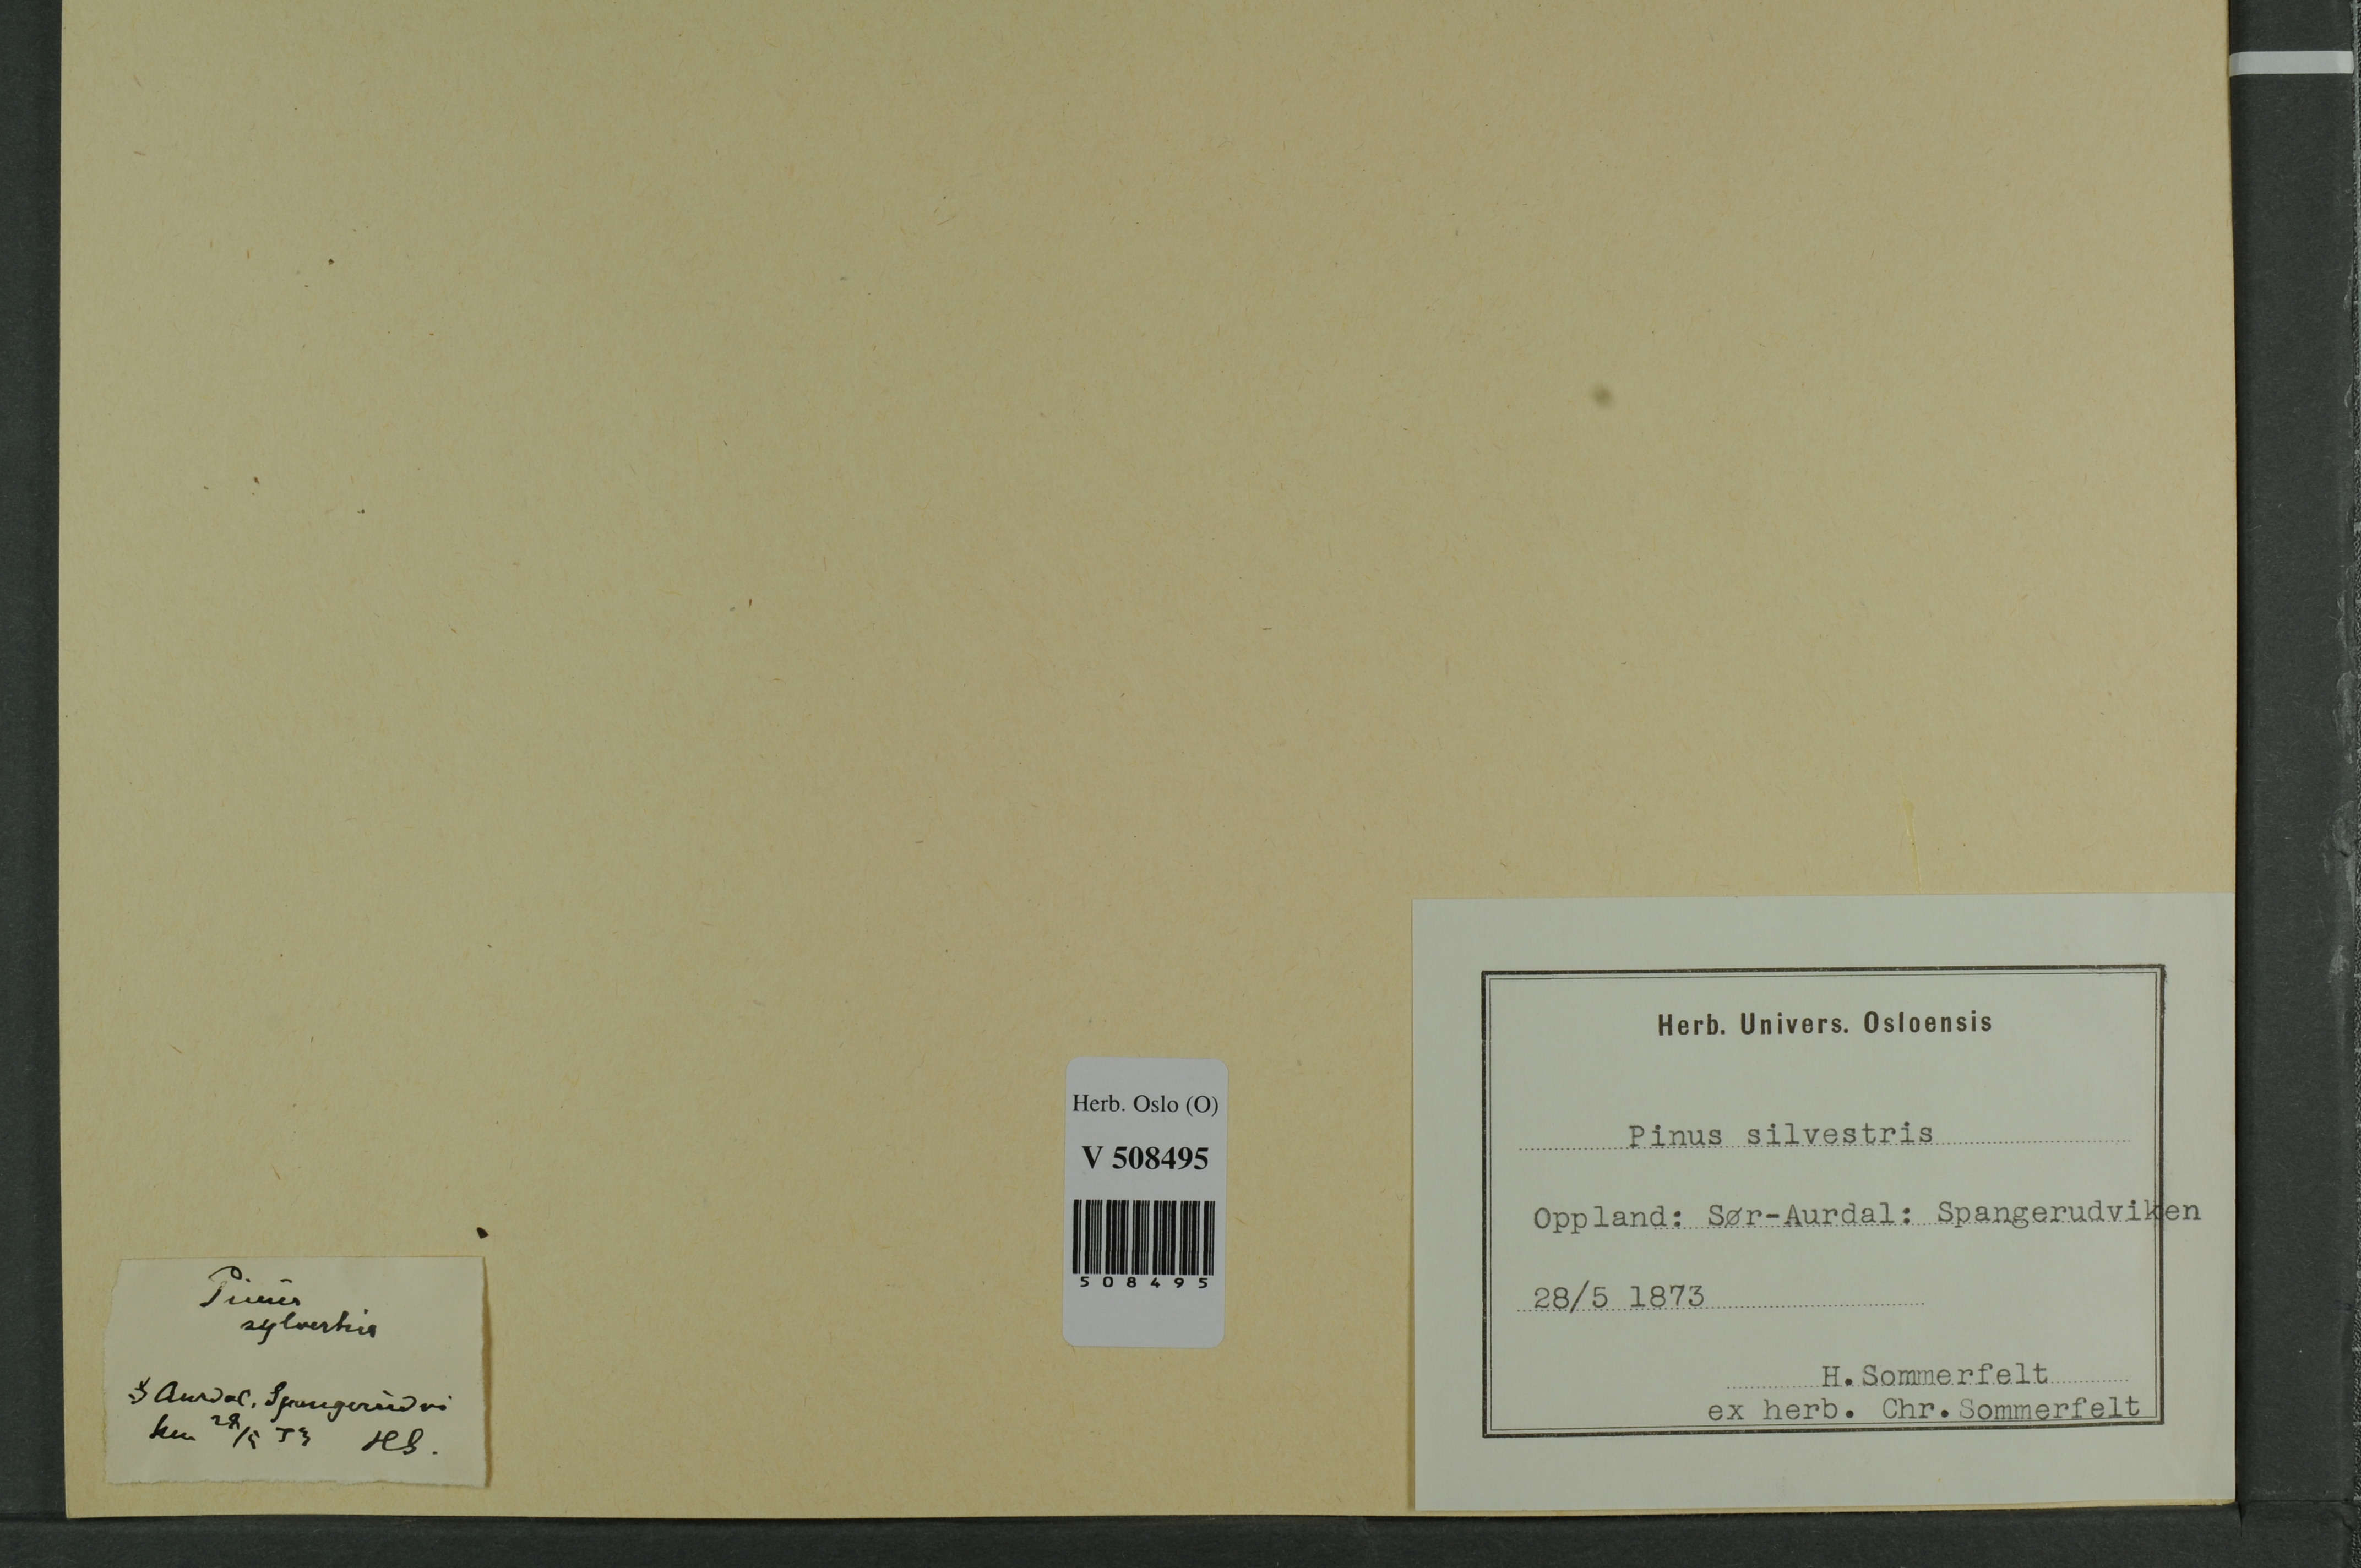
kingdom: Plantae
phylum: Tracheophyta
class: Pinopsida
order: Pinales
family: Pinaceae
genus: Pinus
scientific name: Pinus sylvestris
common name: Scots pine
